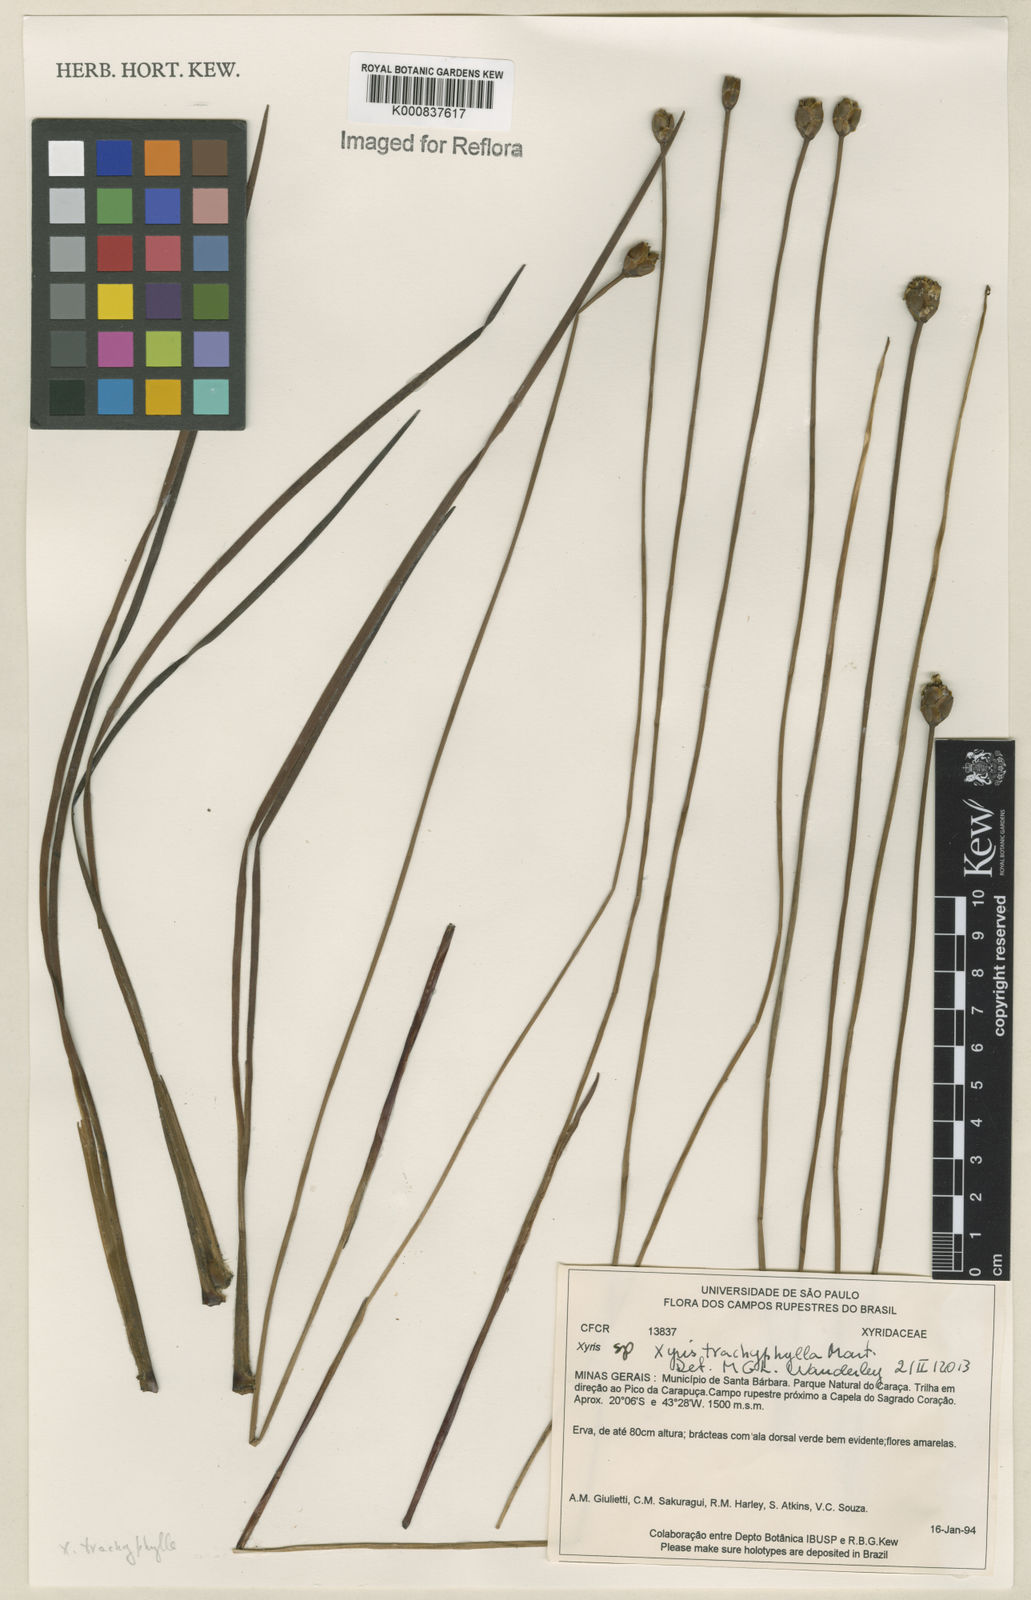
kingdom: Plantae
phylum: Tracheophyta
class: Liliopsida
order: Poales
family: Xyridaceae
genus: Xyris
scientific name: Xyris trachyphylla
